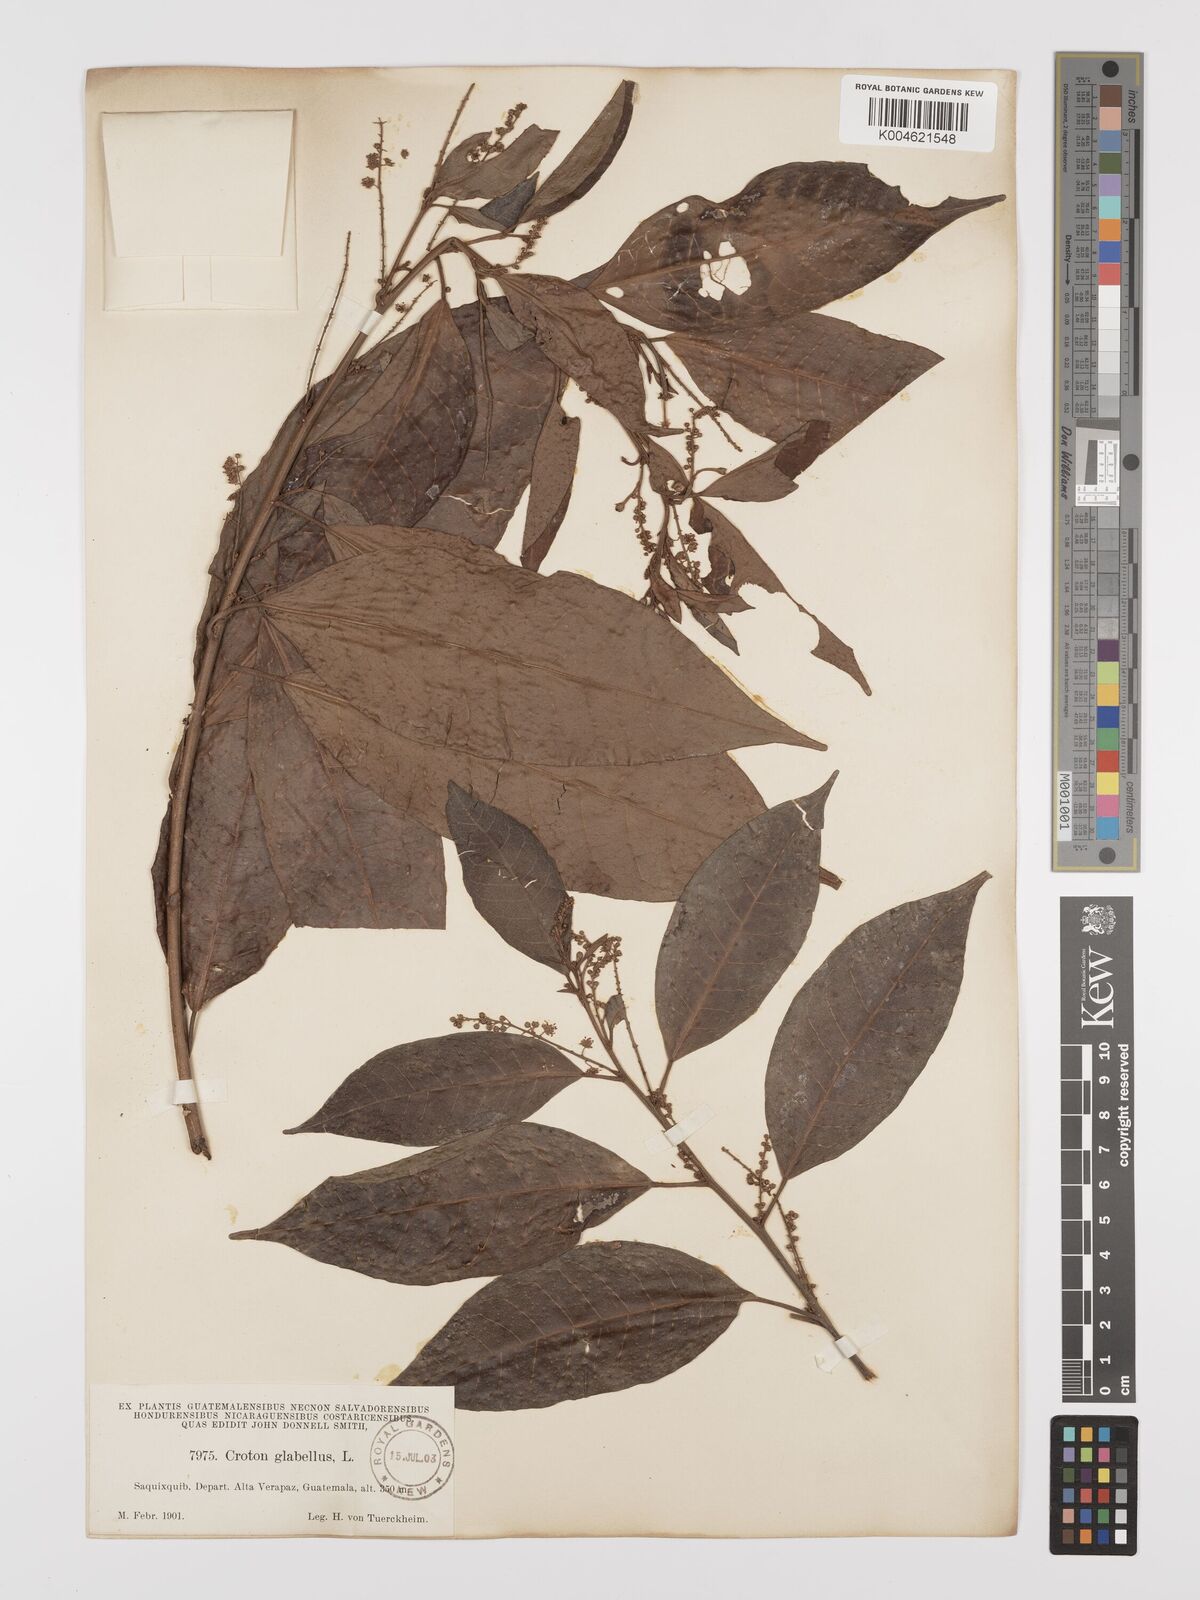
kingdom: Plantae
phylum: Tracheophyta
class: Magnoliopsida
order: Malpighiales
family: Euphorbiaceae
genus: Croton
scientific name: Croton glabellus
